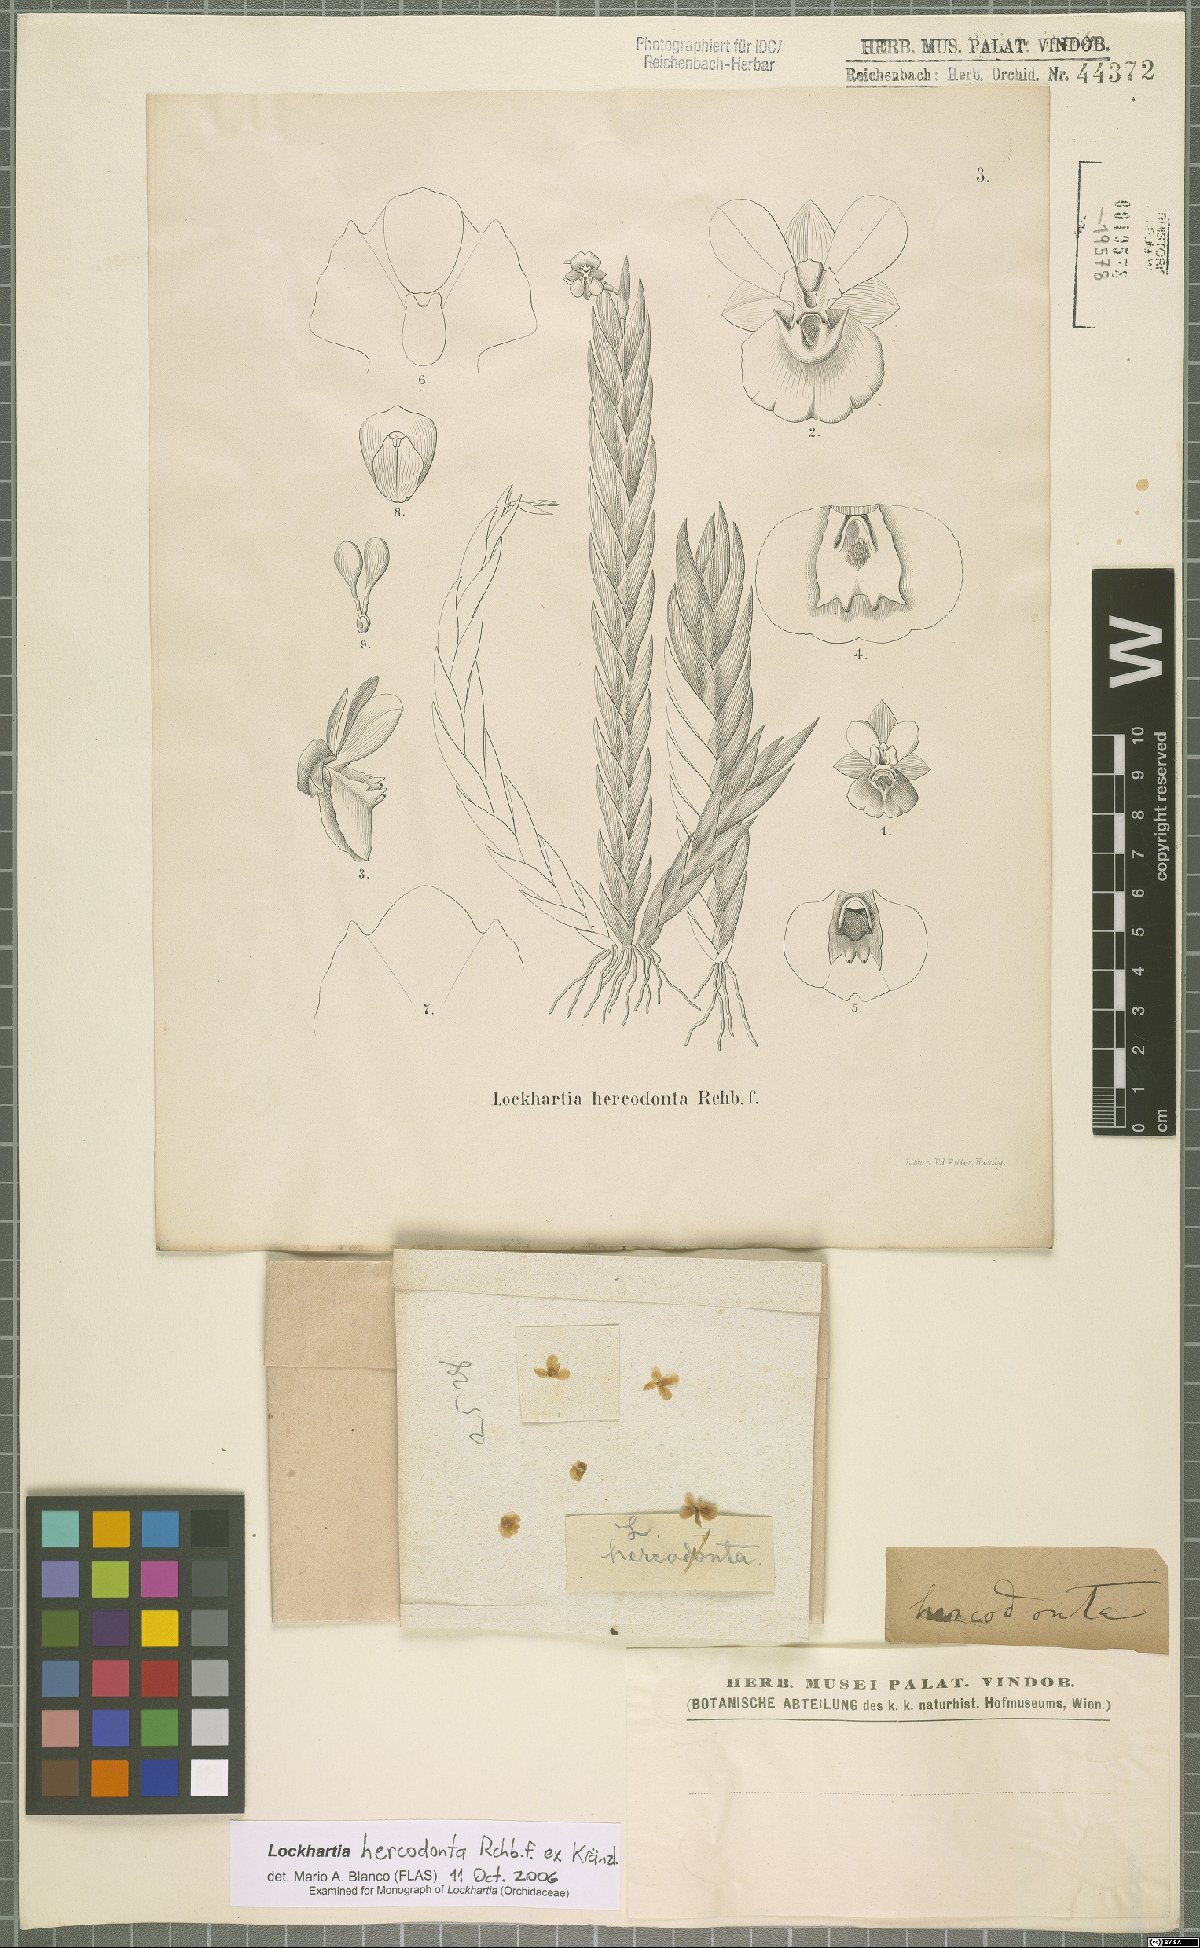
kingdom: Plantae
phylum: Tracheophyta
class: Liliopsida
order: Asparagales
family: Orchidaceae
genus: Lockhartia
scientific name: Lockhartia hercodonta
